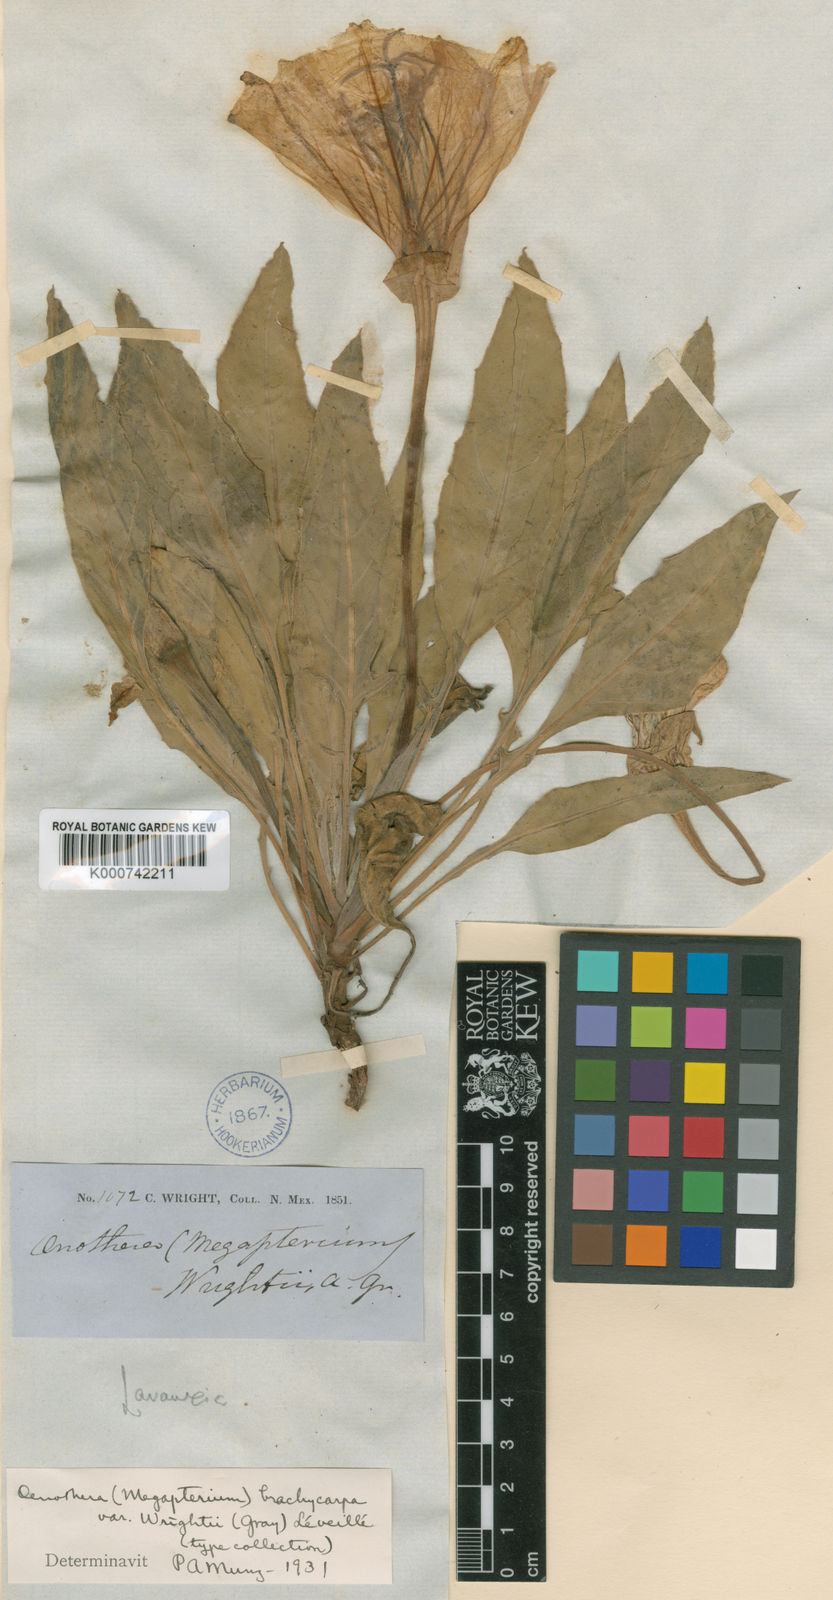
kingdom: Plantae
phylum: Tracheophyta
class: Magnoliopsida
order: Myrtales
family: Onagraceae
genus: Oenothera
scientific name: Oenothera brachycarpa
